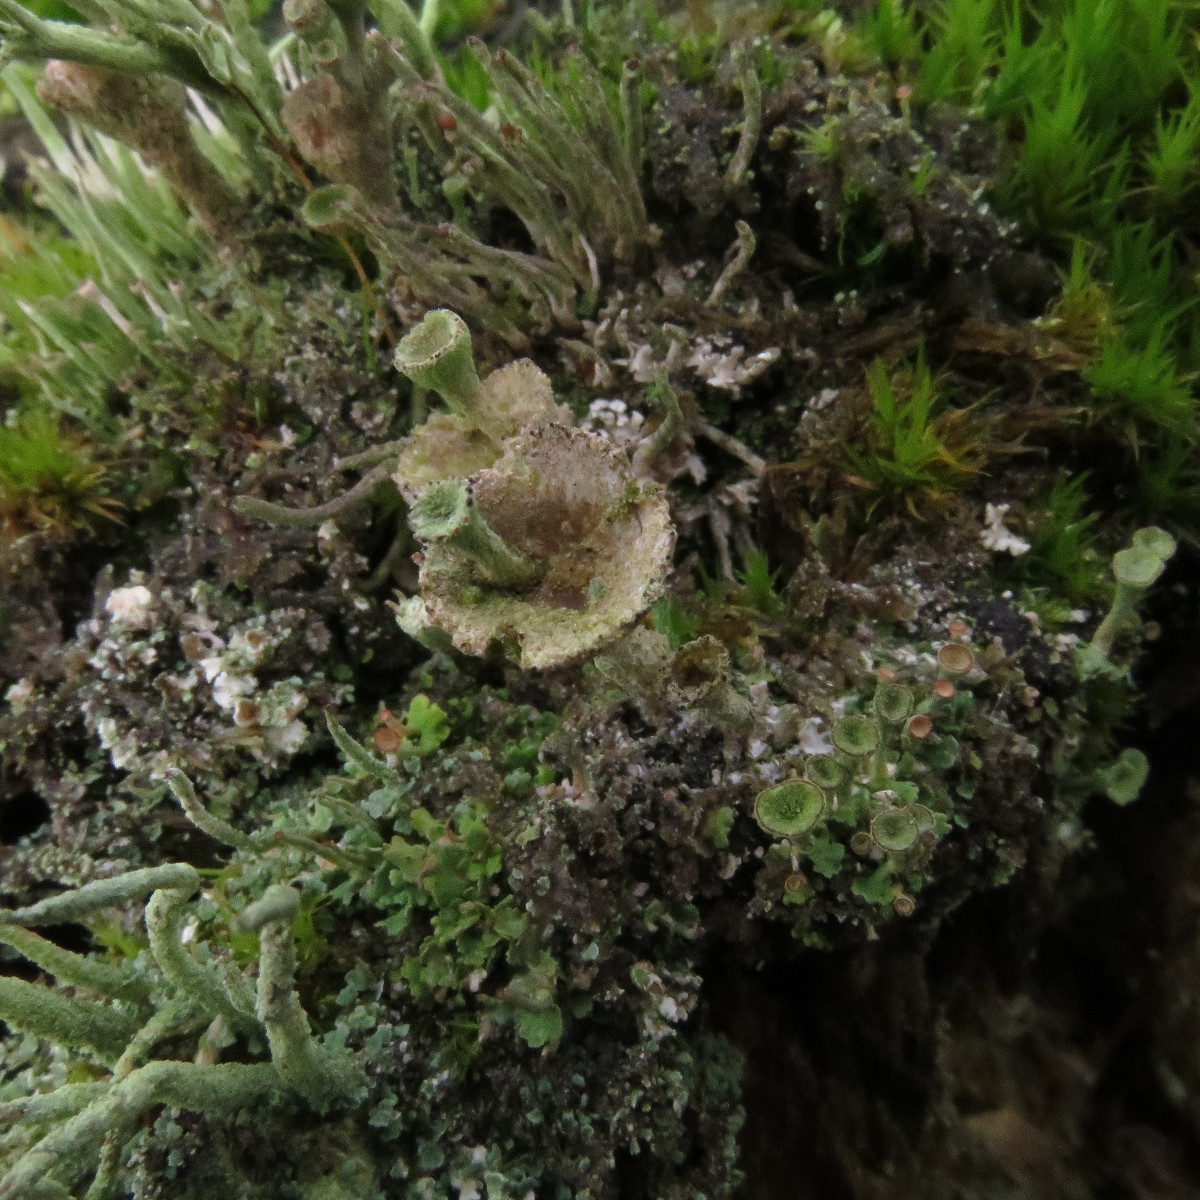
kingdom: Fungi
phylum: Ascomycota
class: Lecanoromycetes
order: Lecanorales
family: Cladoniaceae
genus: Cladonia
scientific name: Cladonia
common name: brungrøn bægerlav
